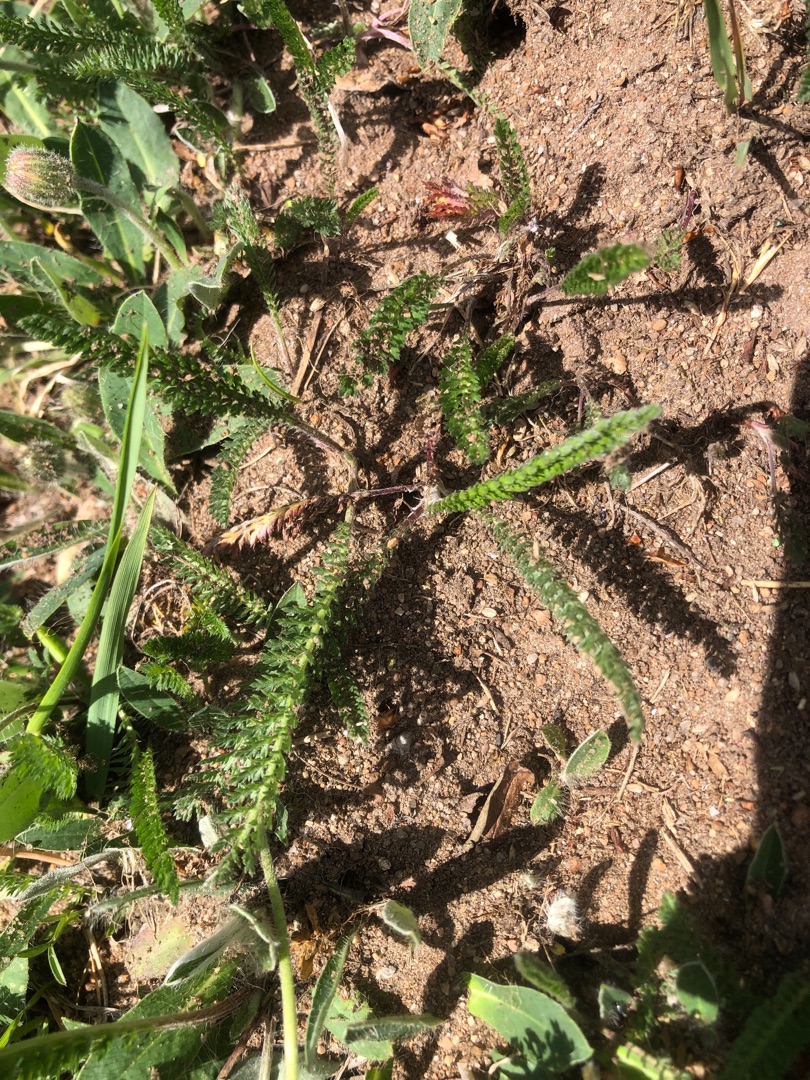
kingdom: Plantae
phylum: Tracheophyta
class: Magnoliopsida
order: Asterales
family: Asteraceae
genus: Achillea
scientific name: Achillea millefolium
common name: Almindelig røllike
